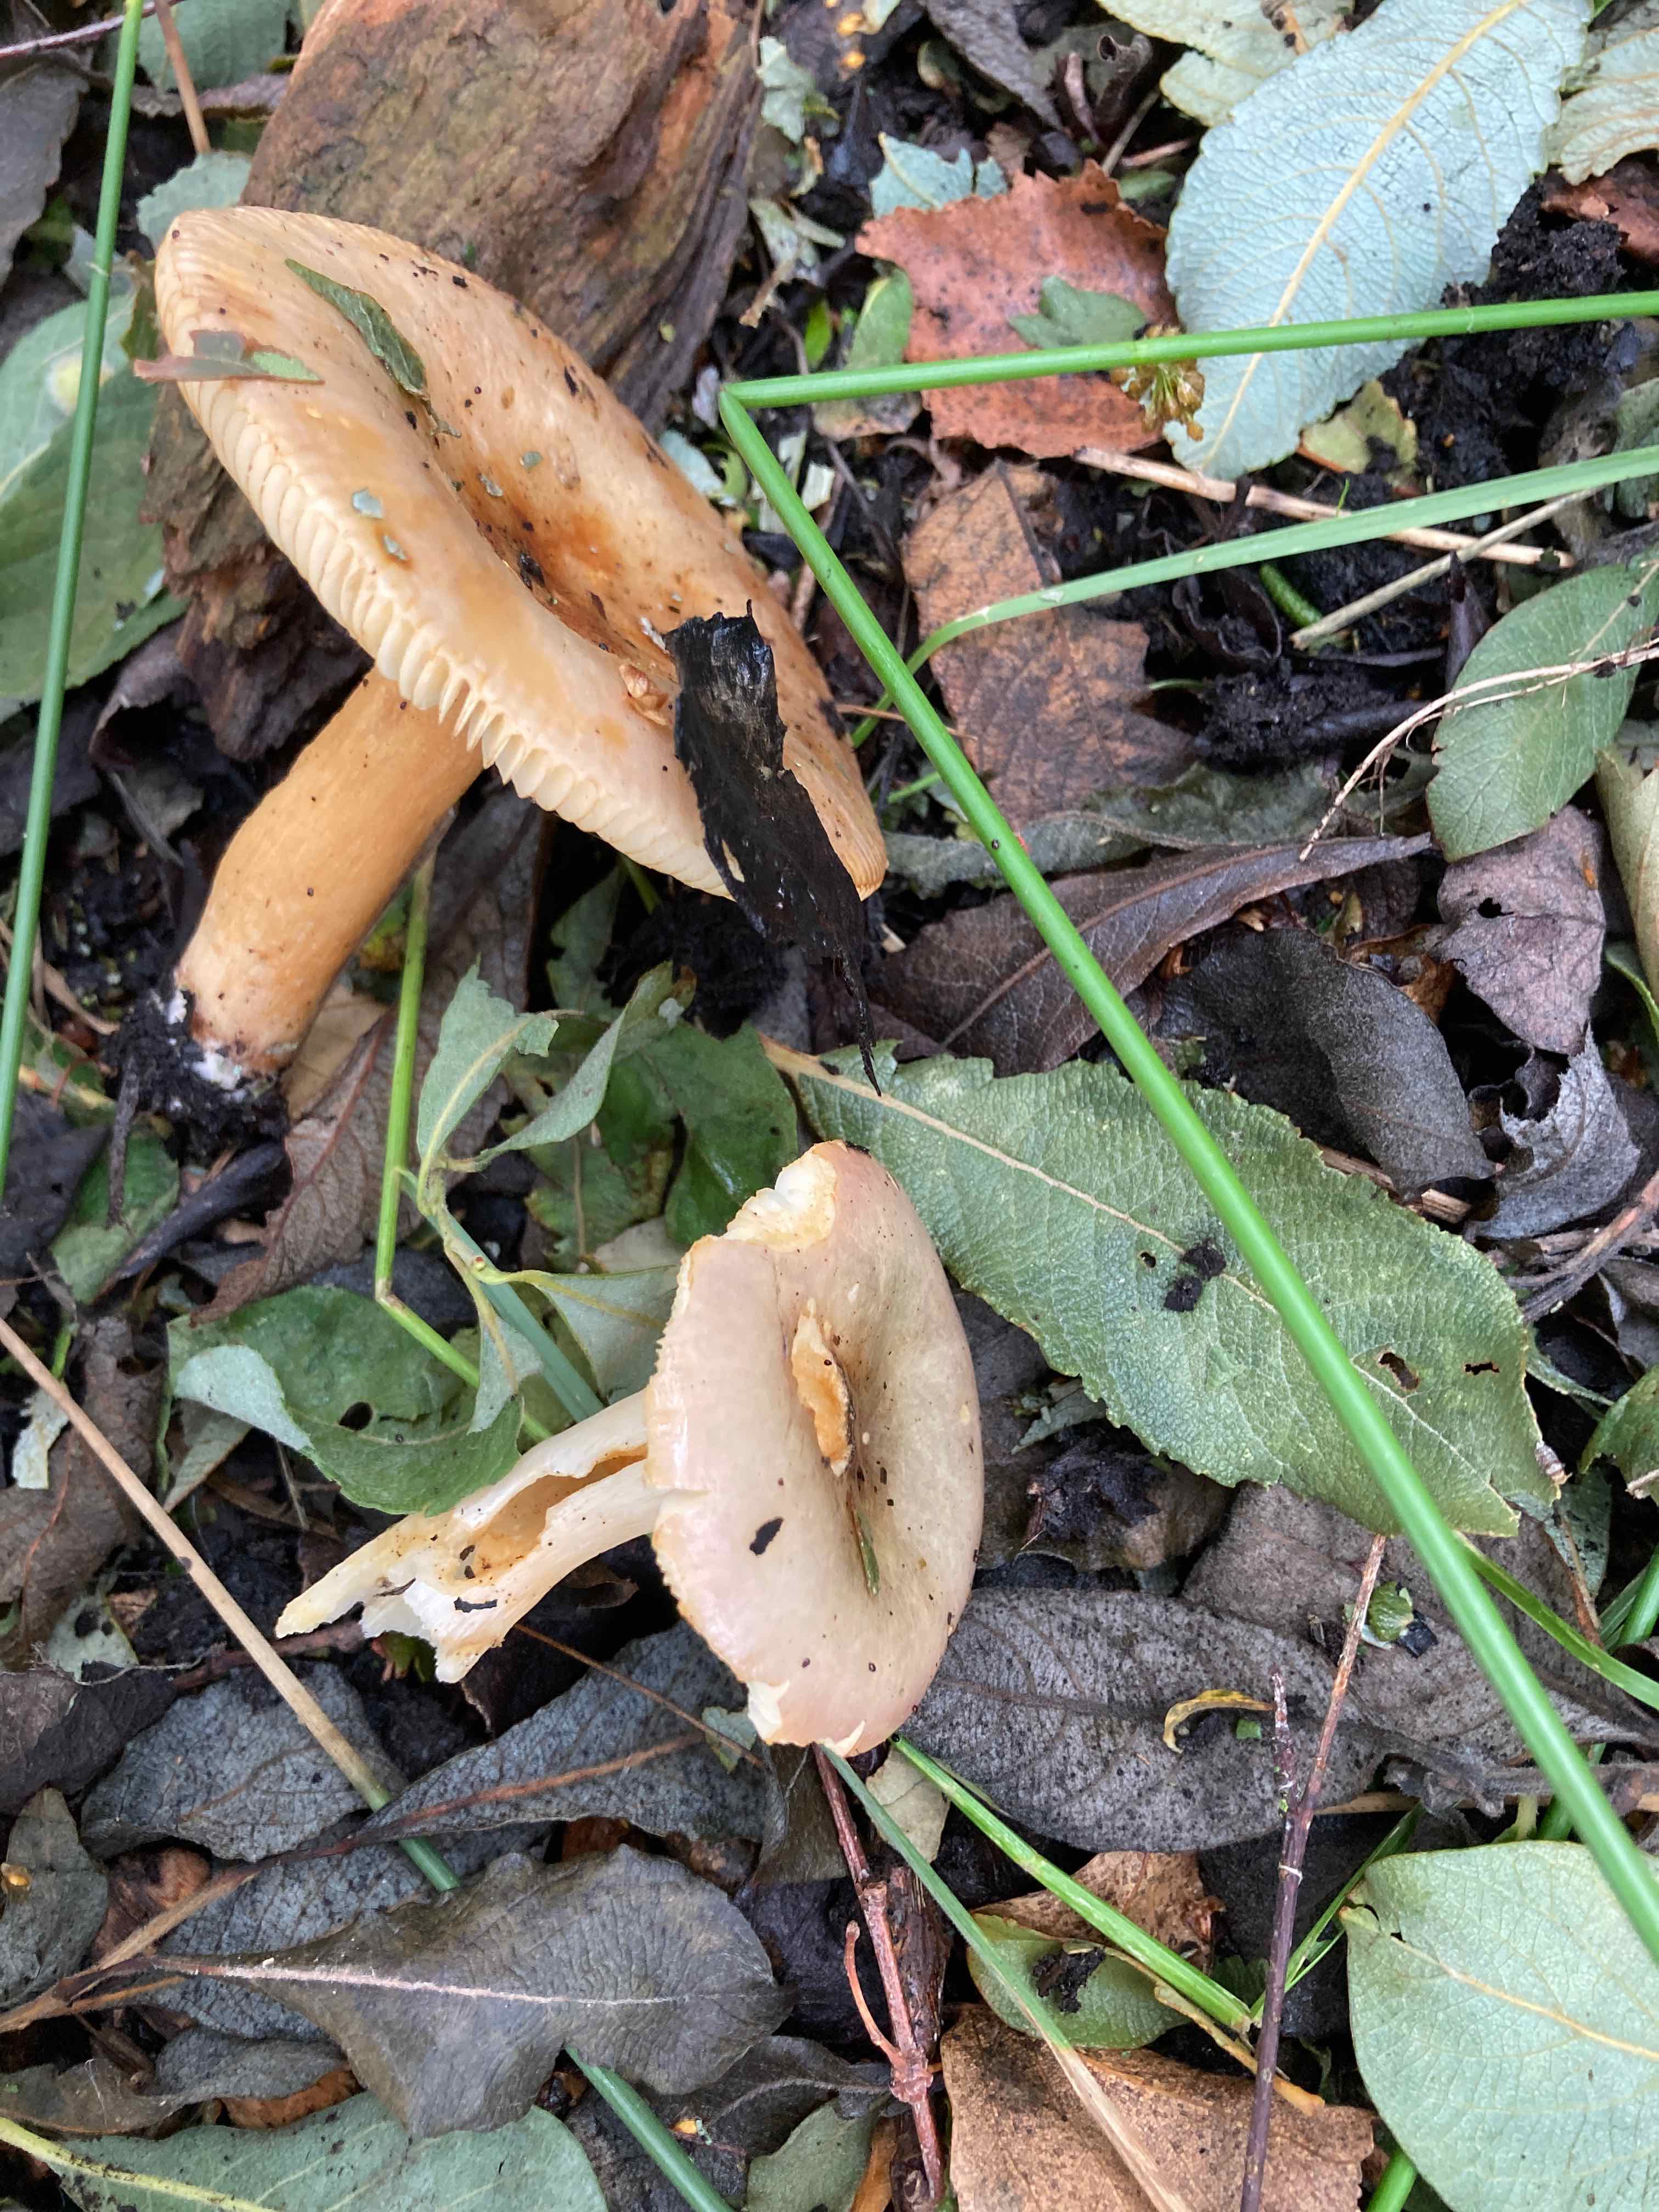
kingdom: Fungi
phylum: Basidiomycota
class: Agaricomycetes
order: Russulales
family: Russulaceae
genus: Russula
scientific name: Russula versicolor
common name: foranderlig skørhat
